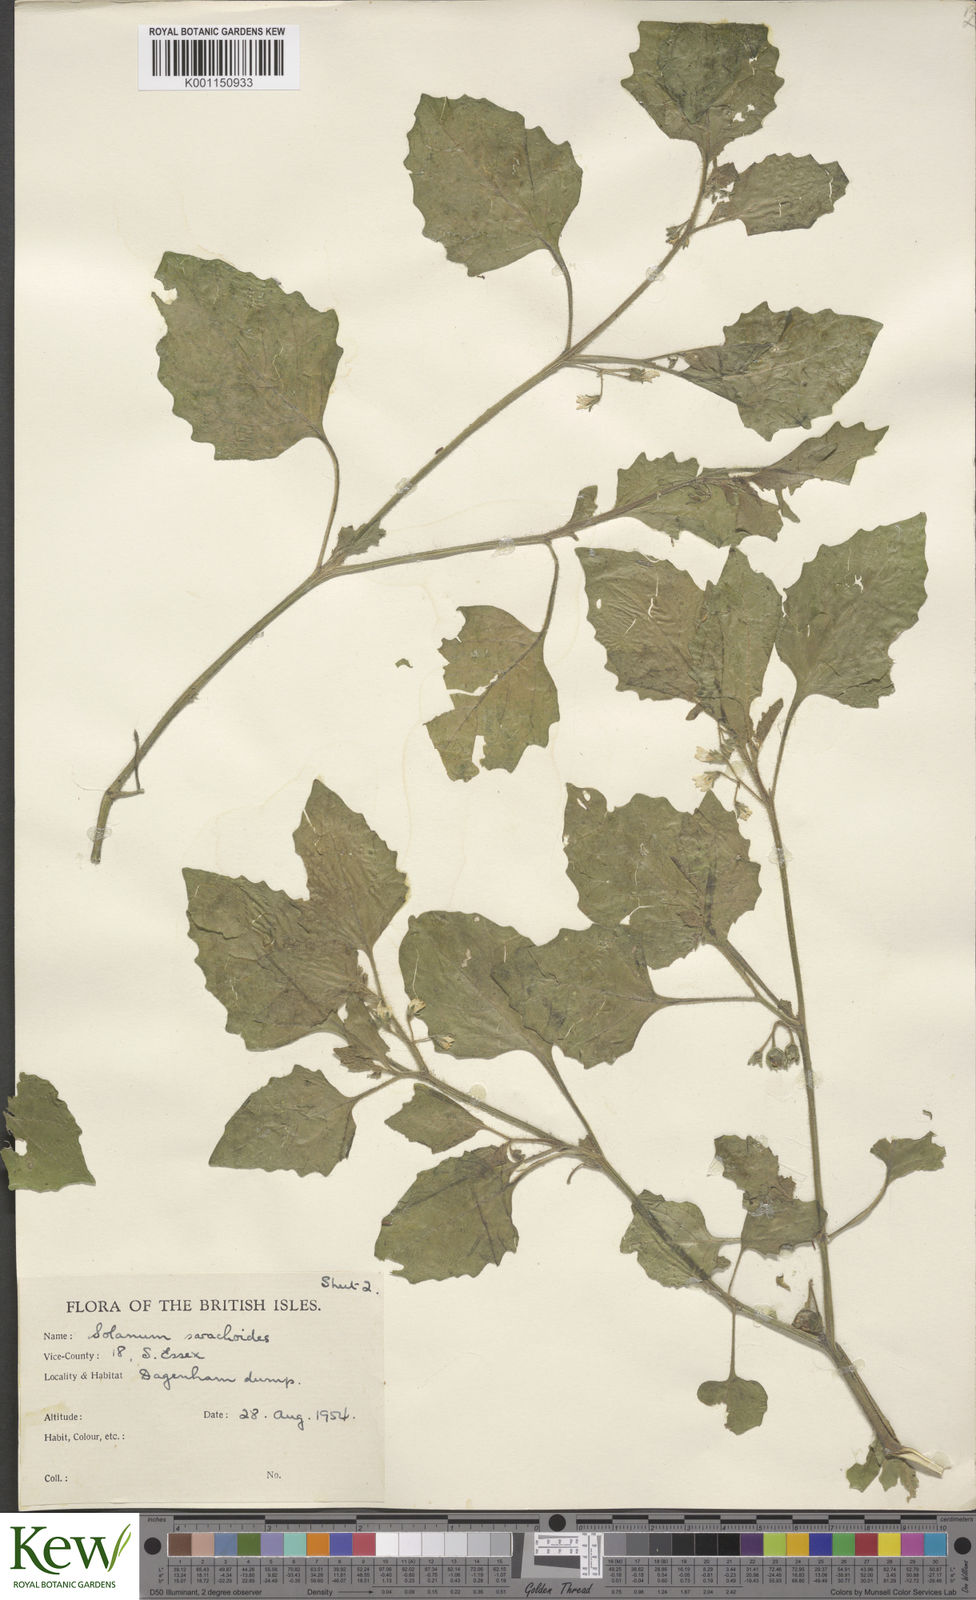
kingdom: Plantae
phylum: Tracheophyta
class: Magnoliopsida
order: Solanales
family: Solanaceae
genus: Solanum
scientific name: Solanum sarrachoides
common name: Leafy-fruited nightshade
